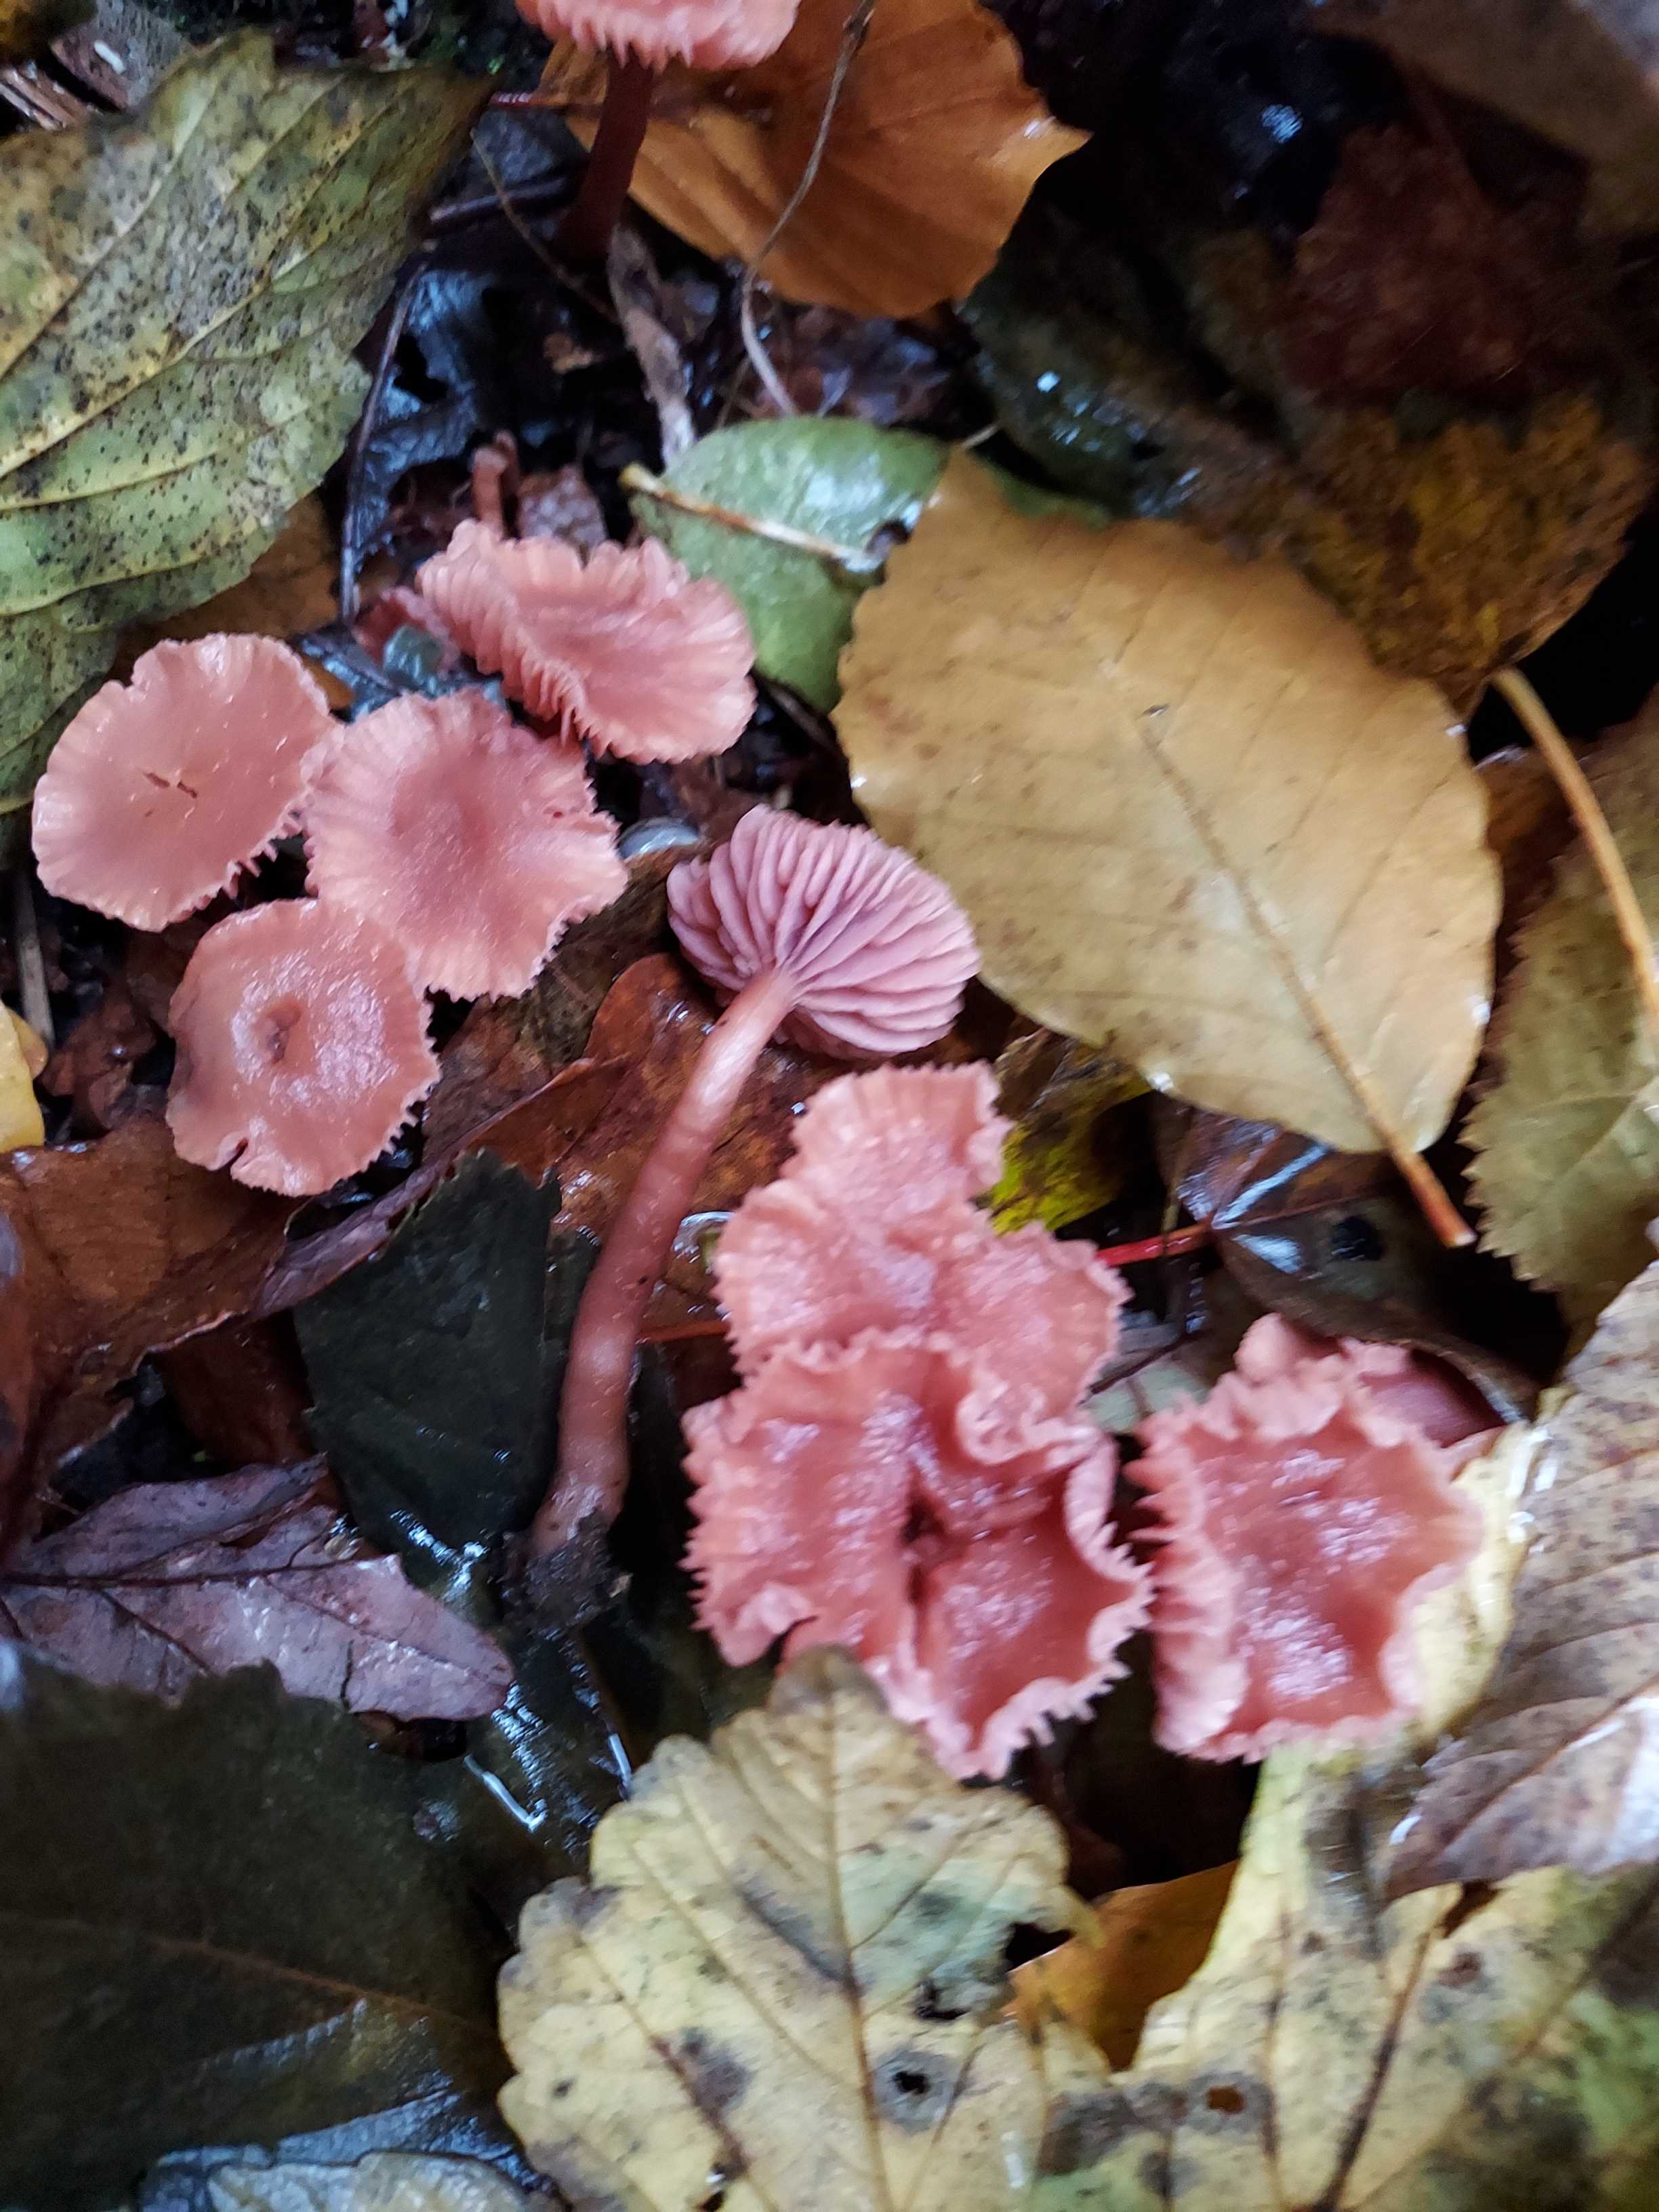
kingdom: Fungi
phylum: Basidiomycota
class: Agaricomycetes
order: Agaricales
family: Hydnangiaceae
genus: Laccaria
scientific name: Laccaria laccata
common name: rød ametysthat
